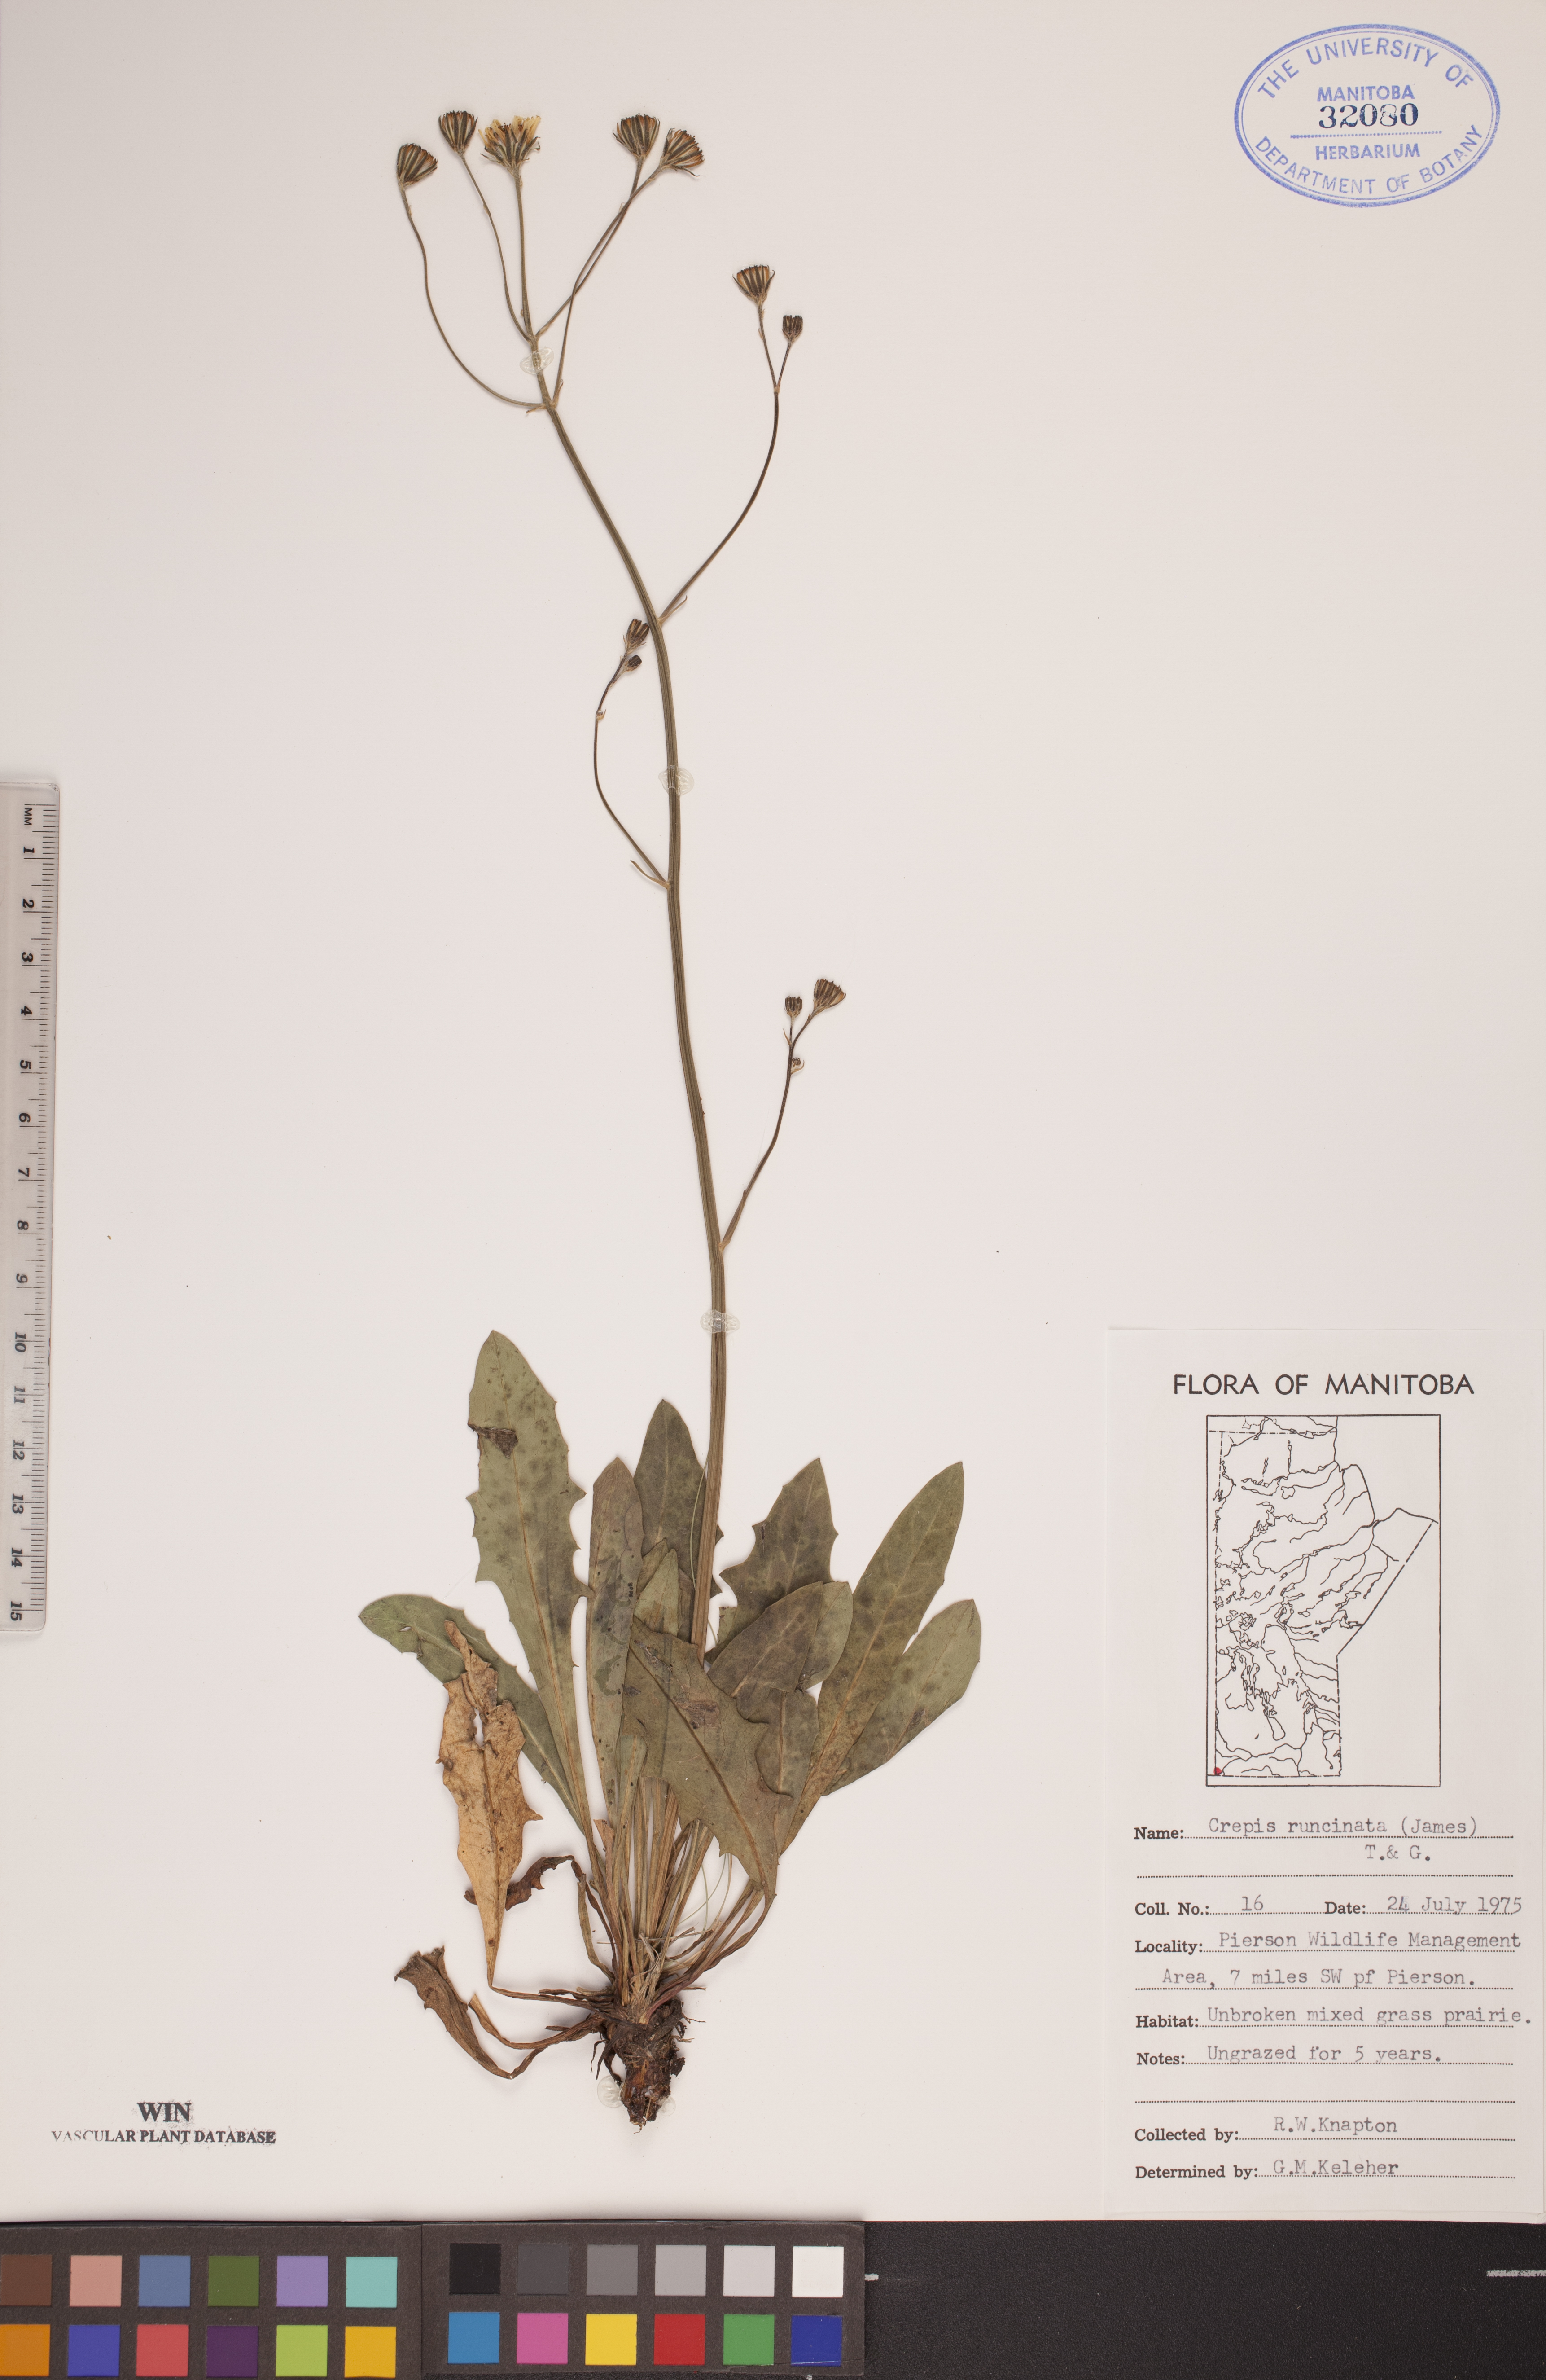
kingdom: Plantae
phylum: Tracheophyta
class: Magnoliopsida
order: Asterales
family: Asteraceae
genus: Crepis
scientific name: Crepis runcinata
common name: Dandelion hawksbeard
